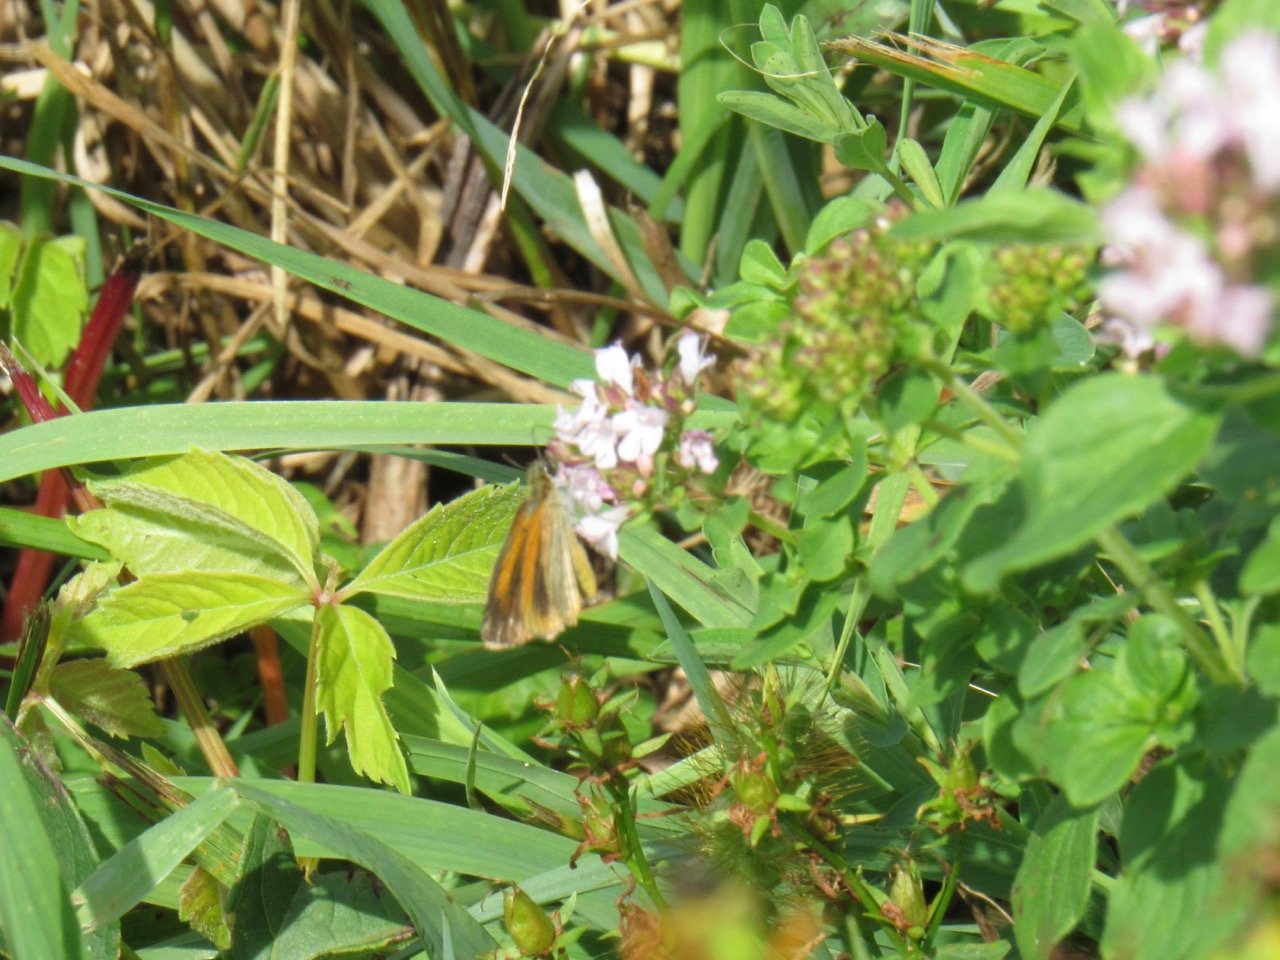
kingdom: Animalia
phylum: Arthropoda
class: Insecta
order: Lepidoptera
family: Hesperiidae
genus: Ancyloxypha
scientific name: Ancyloxypha numitor
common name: Least Skipper
